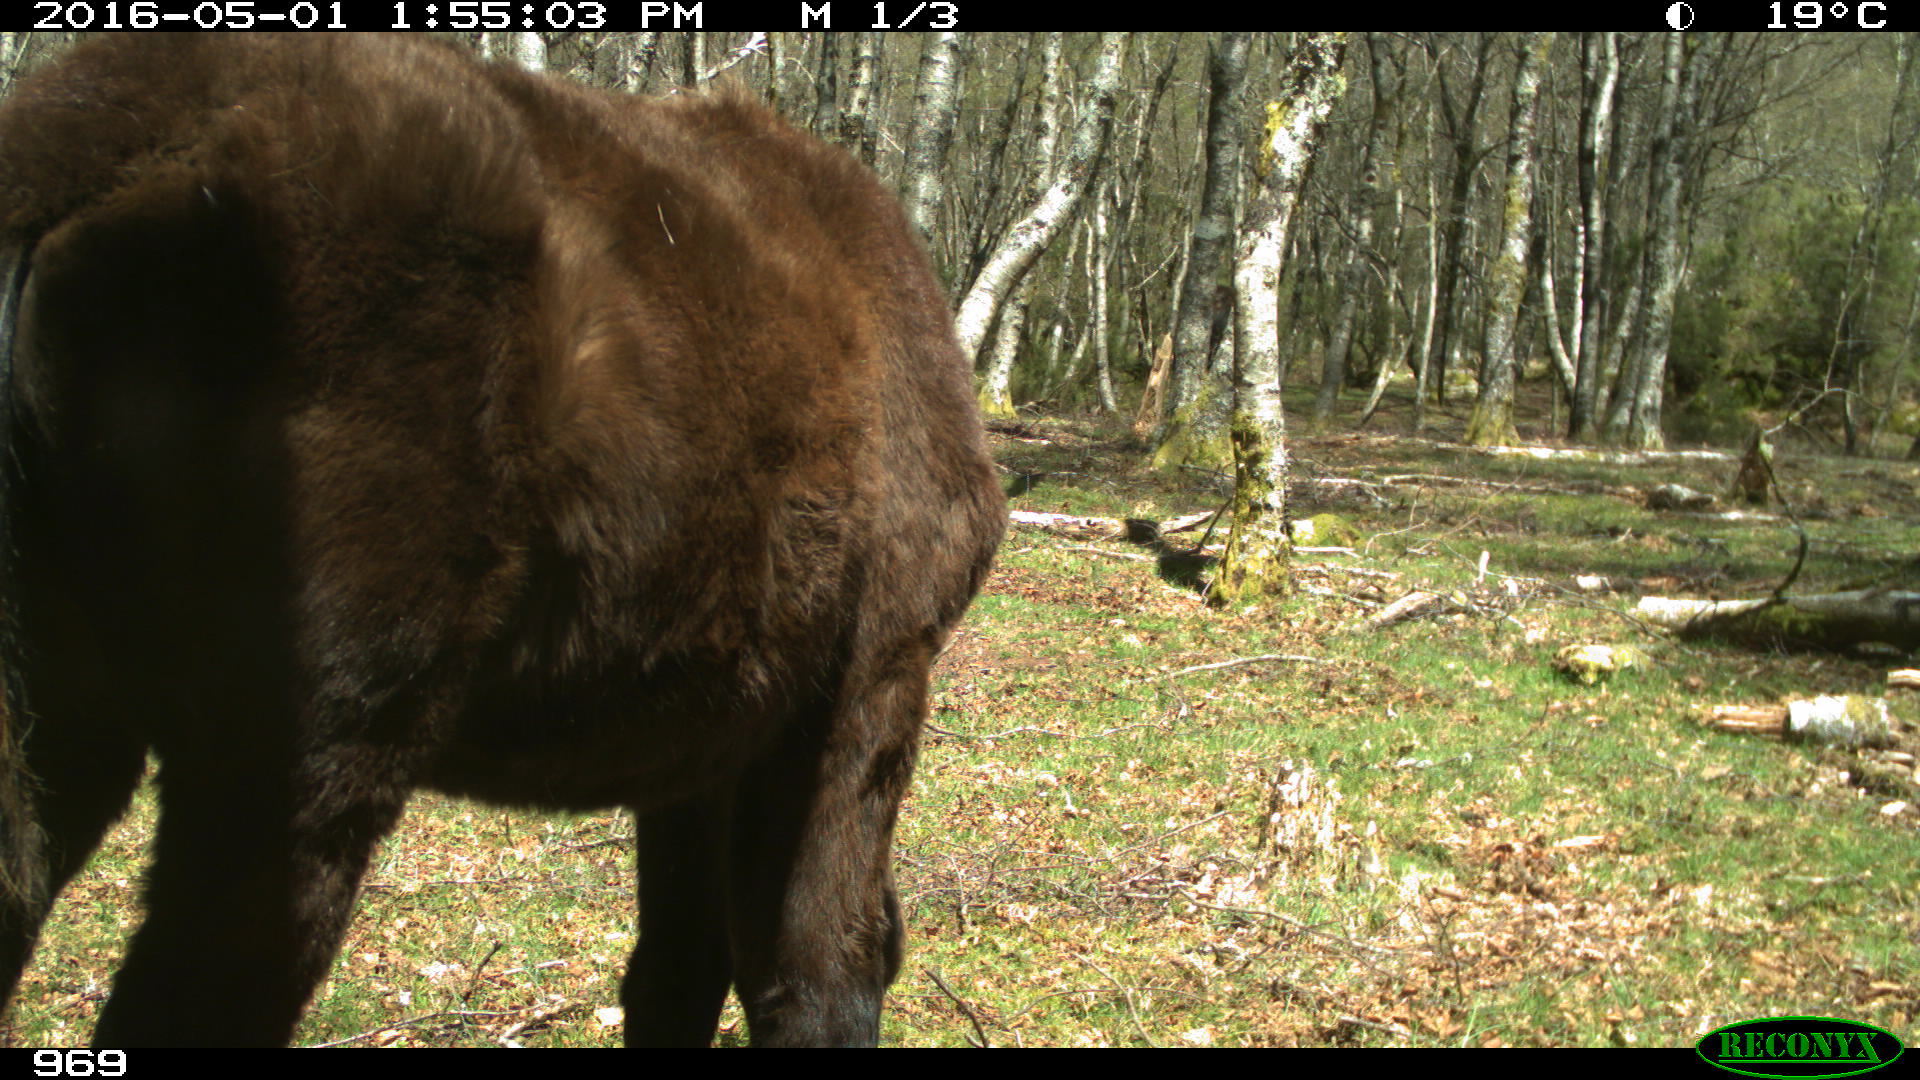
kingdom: Animalia
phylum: Chordata
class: Mammalia
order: Perissodactyla
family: Equidae
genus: Equus
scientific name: Equus caballus
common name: Horse
